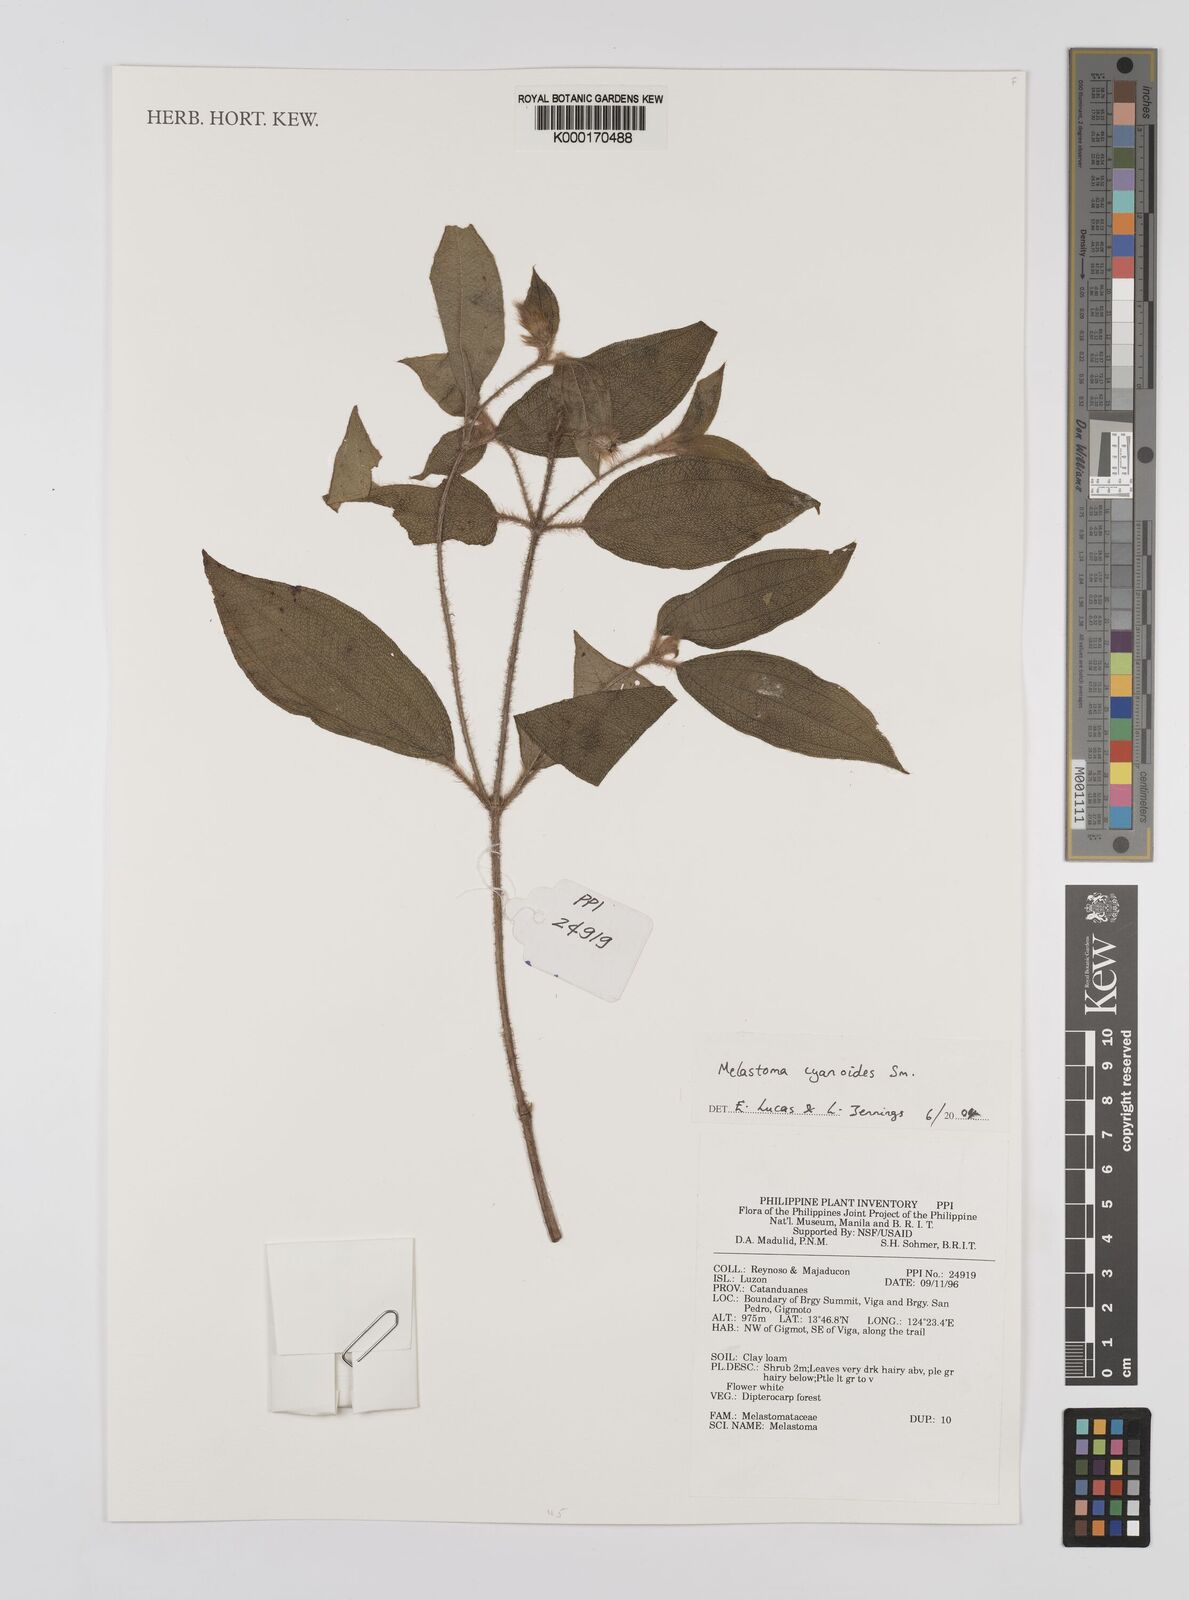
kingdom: Plantae
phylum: Tracheophyta
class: Magnoliopsida
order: Myrtales
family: Melastomataceae
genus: Melastoma
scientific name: Melastoma cyanoides
